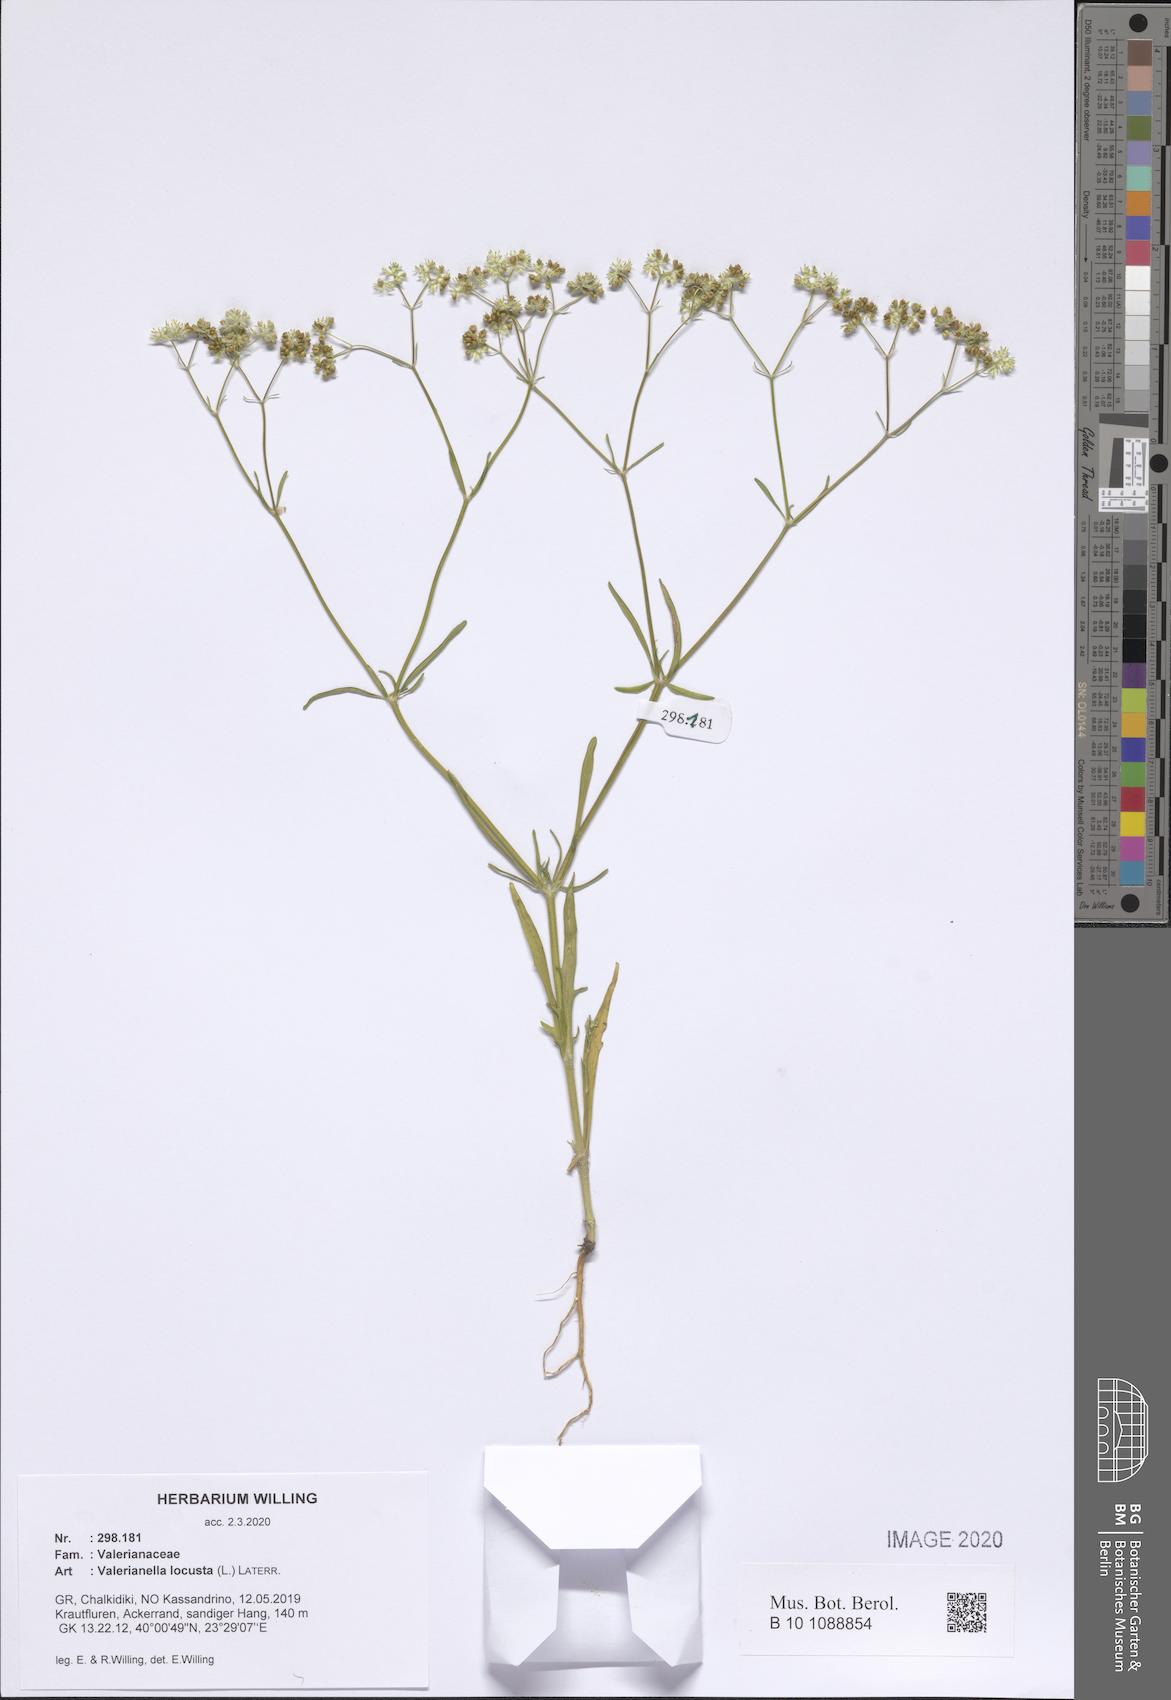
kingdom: Plantae
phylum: Tracheophyta
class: Magnoliopsida
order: Dipsacales
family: Caprifoliaceae
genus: Valerianella
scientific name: Valerianella locusta
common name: Common cornsalad
